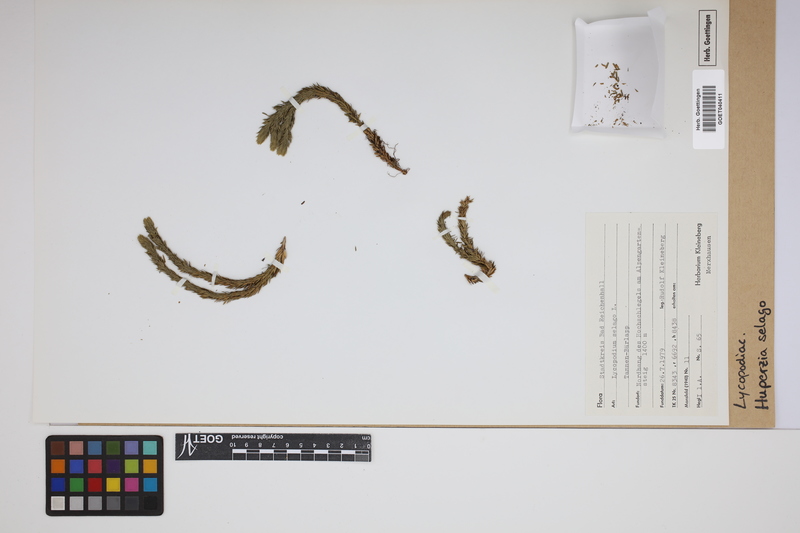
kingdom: Plantae
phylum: Tracheophyta
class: Lycopodiopsida
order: Lycopodiales
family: Lycopodiaceae
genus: Huperzia
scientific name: Huperzia selago
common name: Northern firmoss
